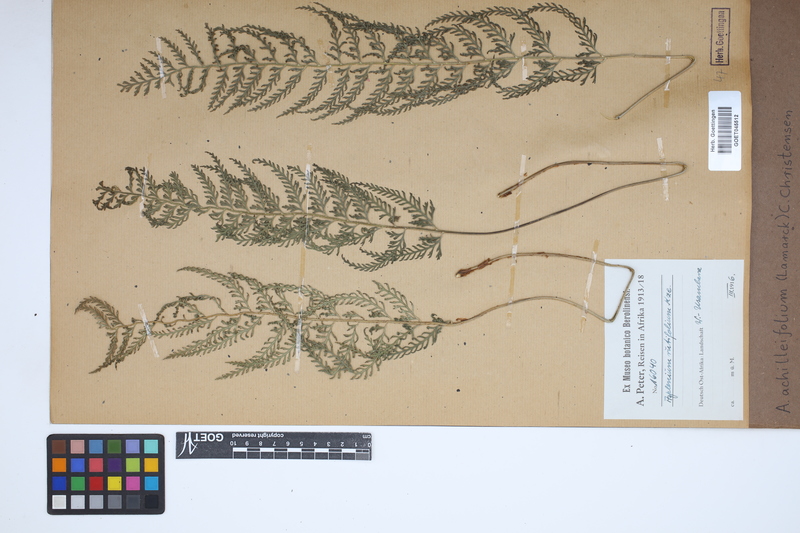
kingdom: Plantae
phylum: Tracheophyta
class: Polypodiopsida
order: Polypodiales
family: Aspleniaceae
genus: Asplenium
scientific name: Asplenium rutifolium
